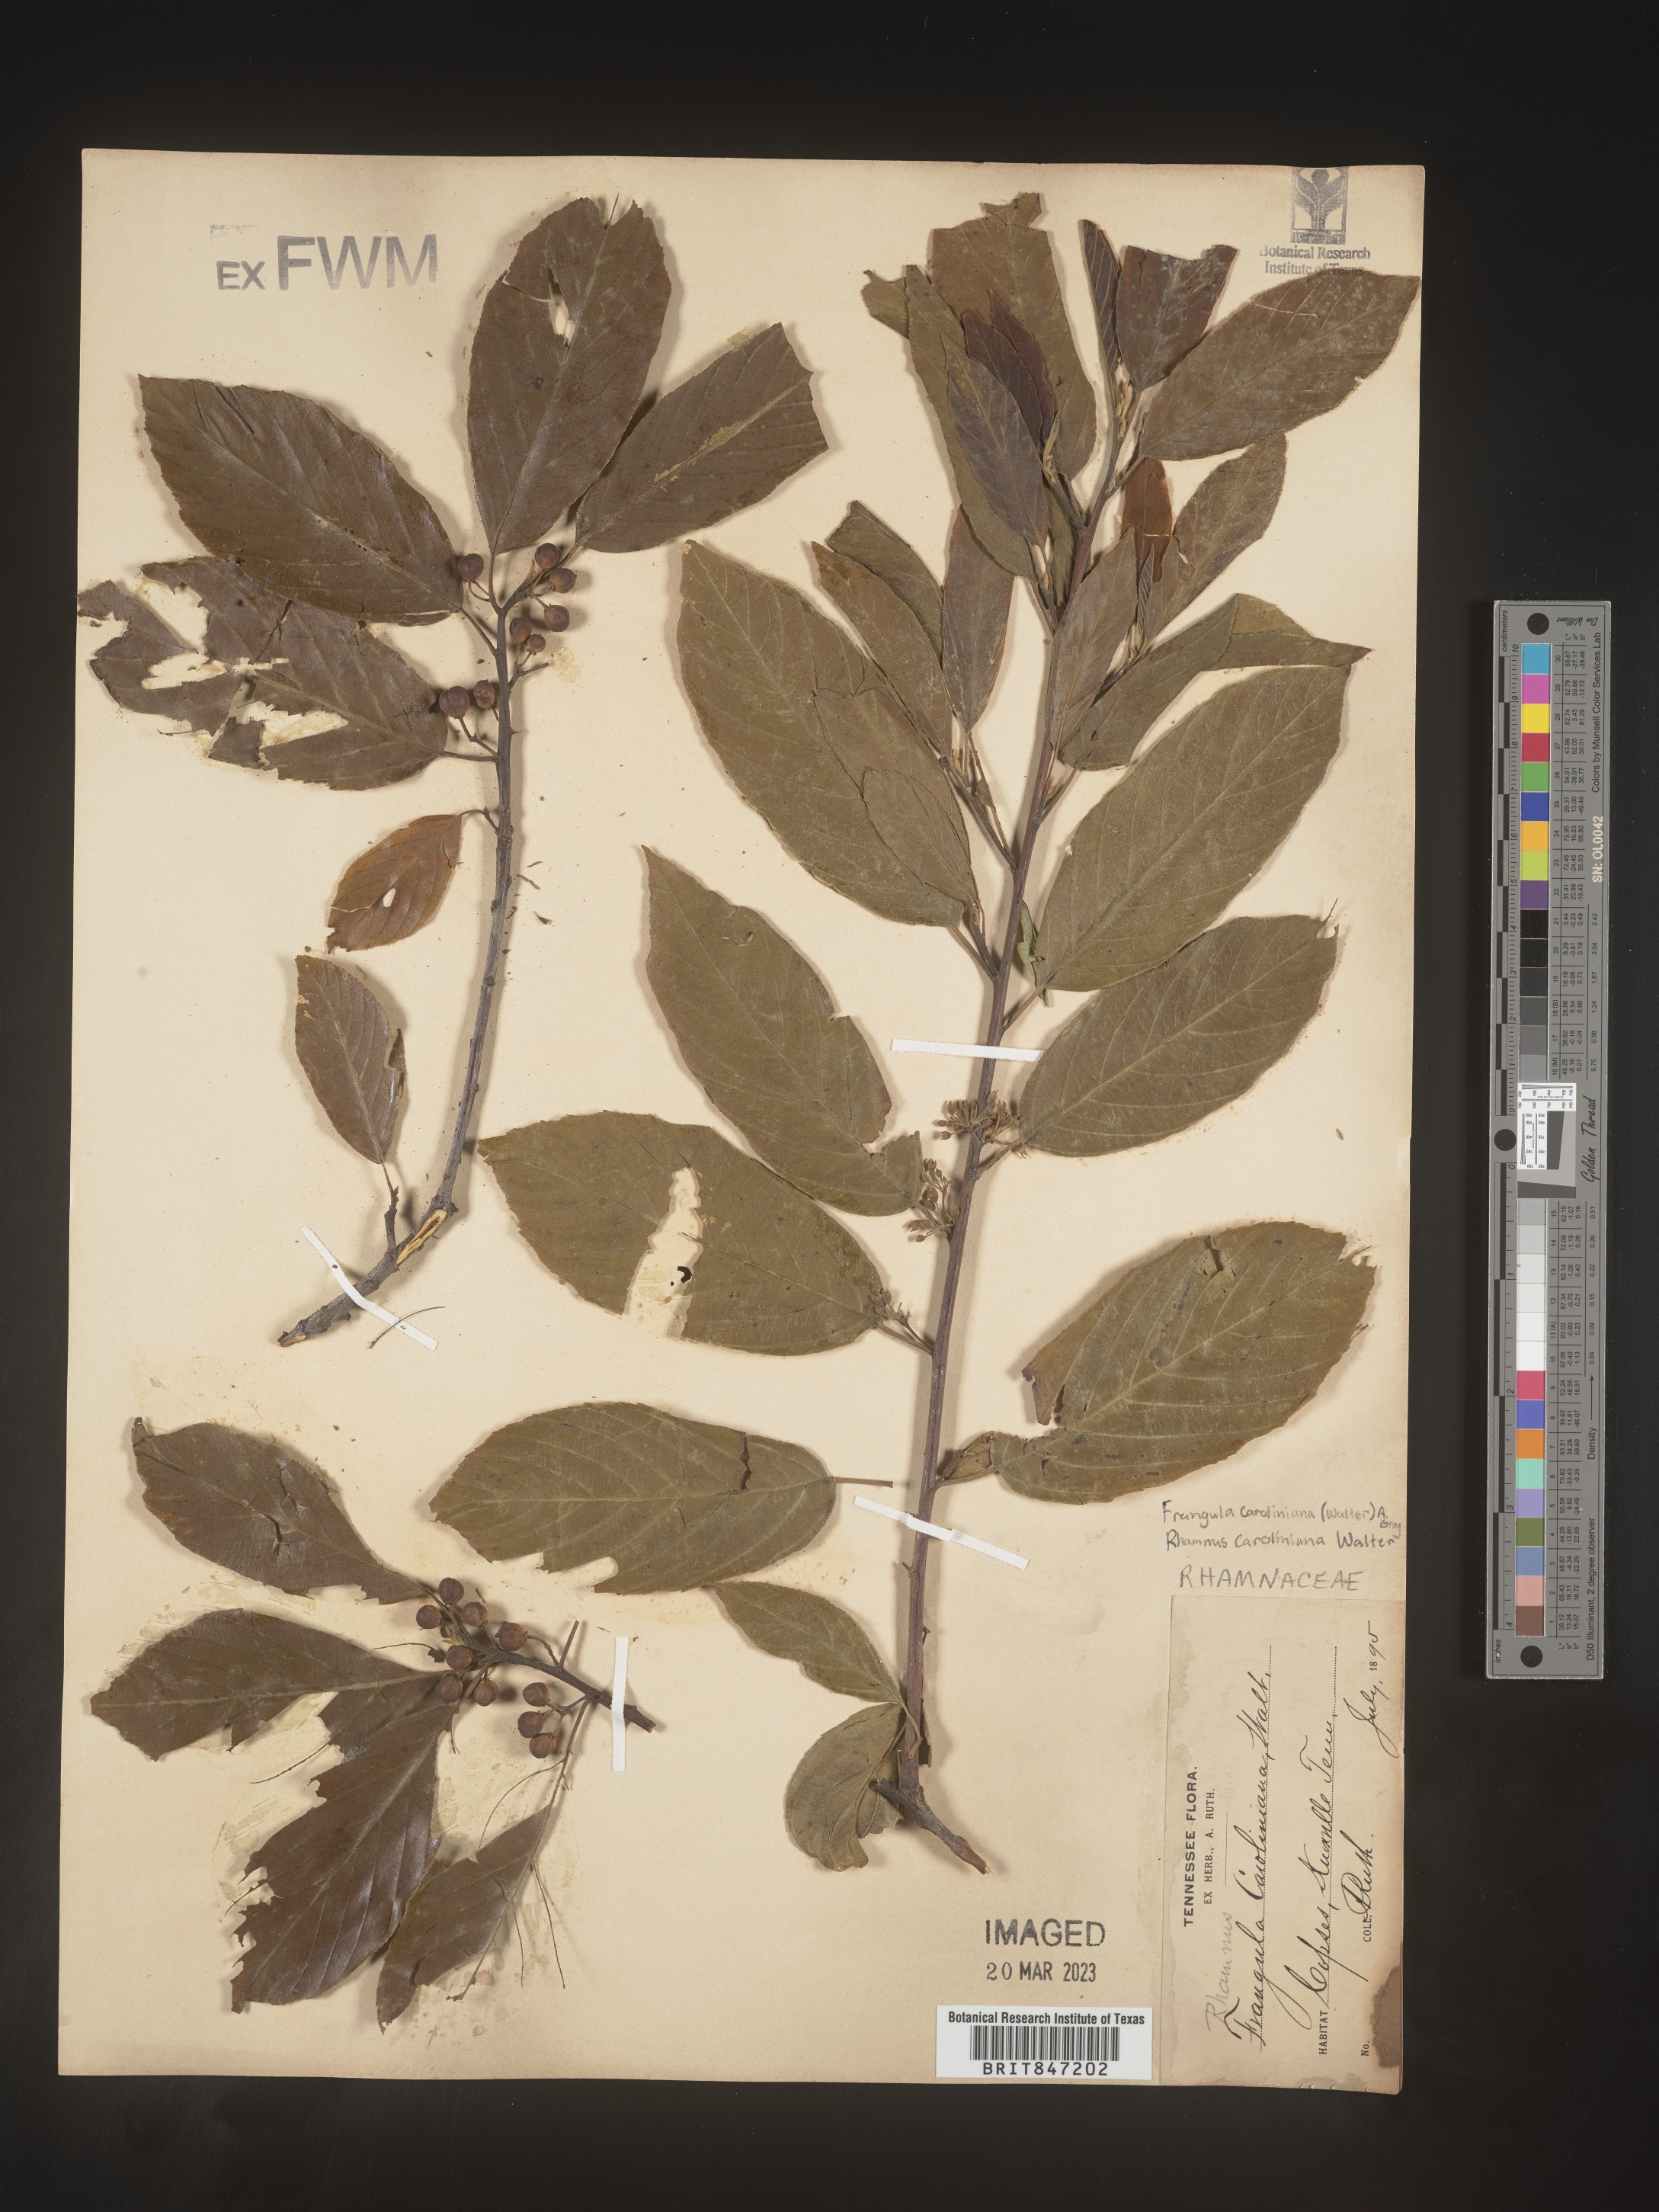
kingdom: Plantae
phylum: Tracheophyta
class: Magnoliopsida
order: Rosales
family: Rhamnaceae
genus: Frangula
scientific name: Frangula
